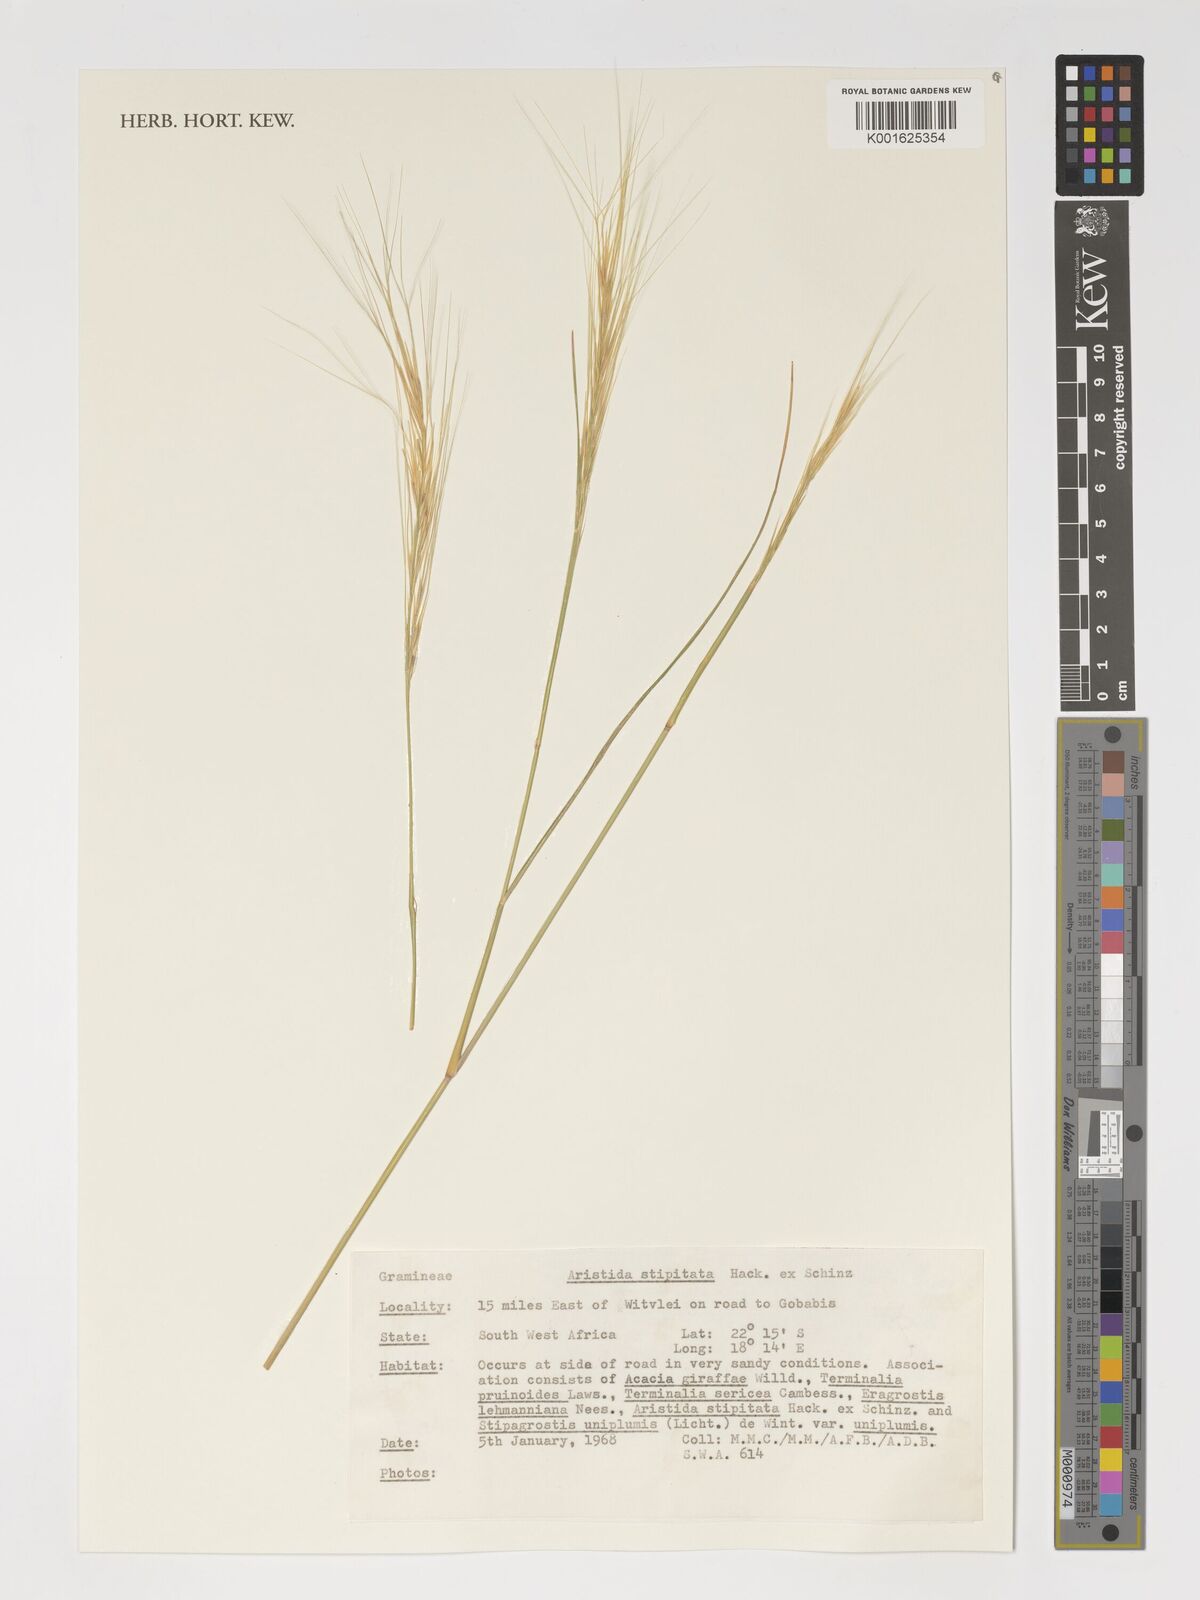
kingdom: Plantae
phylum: Tracheophyta
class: Liliopsida
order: Poales
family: Poaceae
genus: Aristida
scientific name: Aristida stipitata
